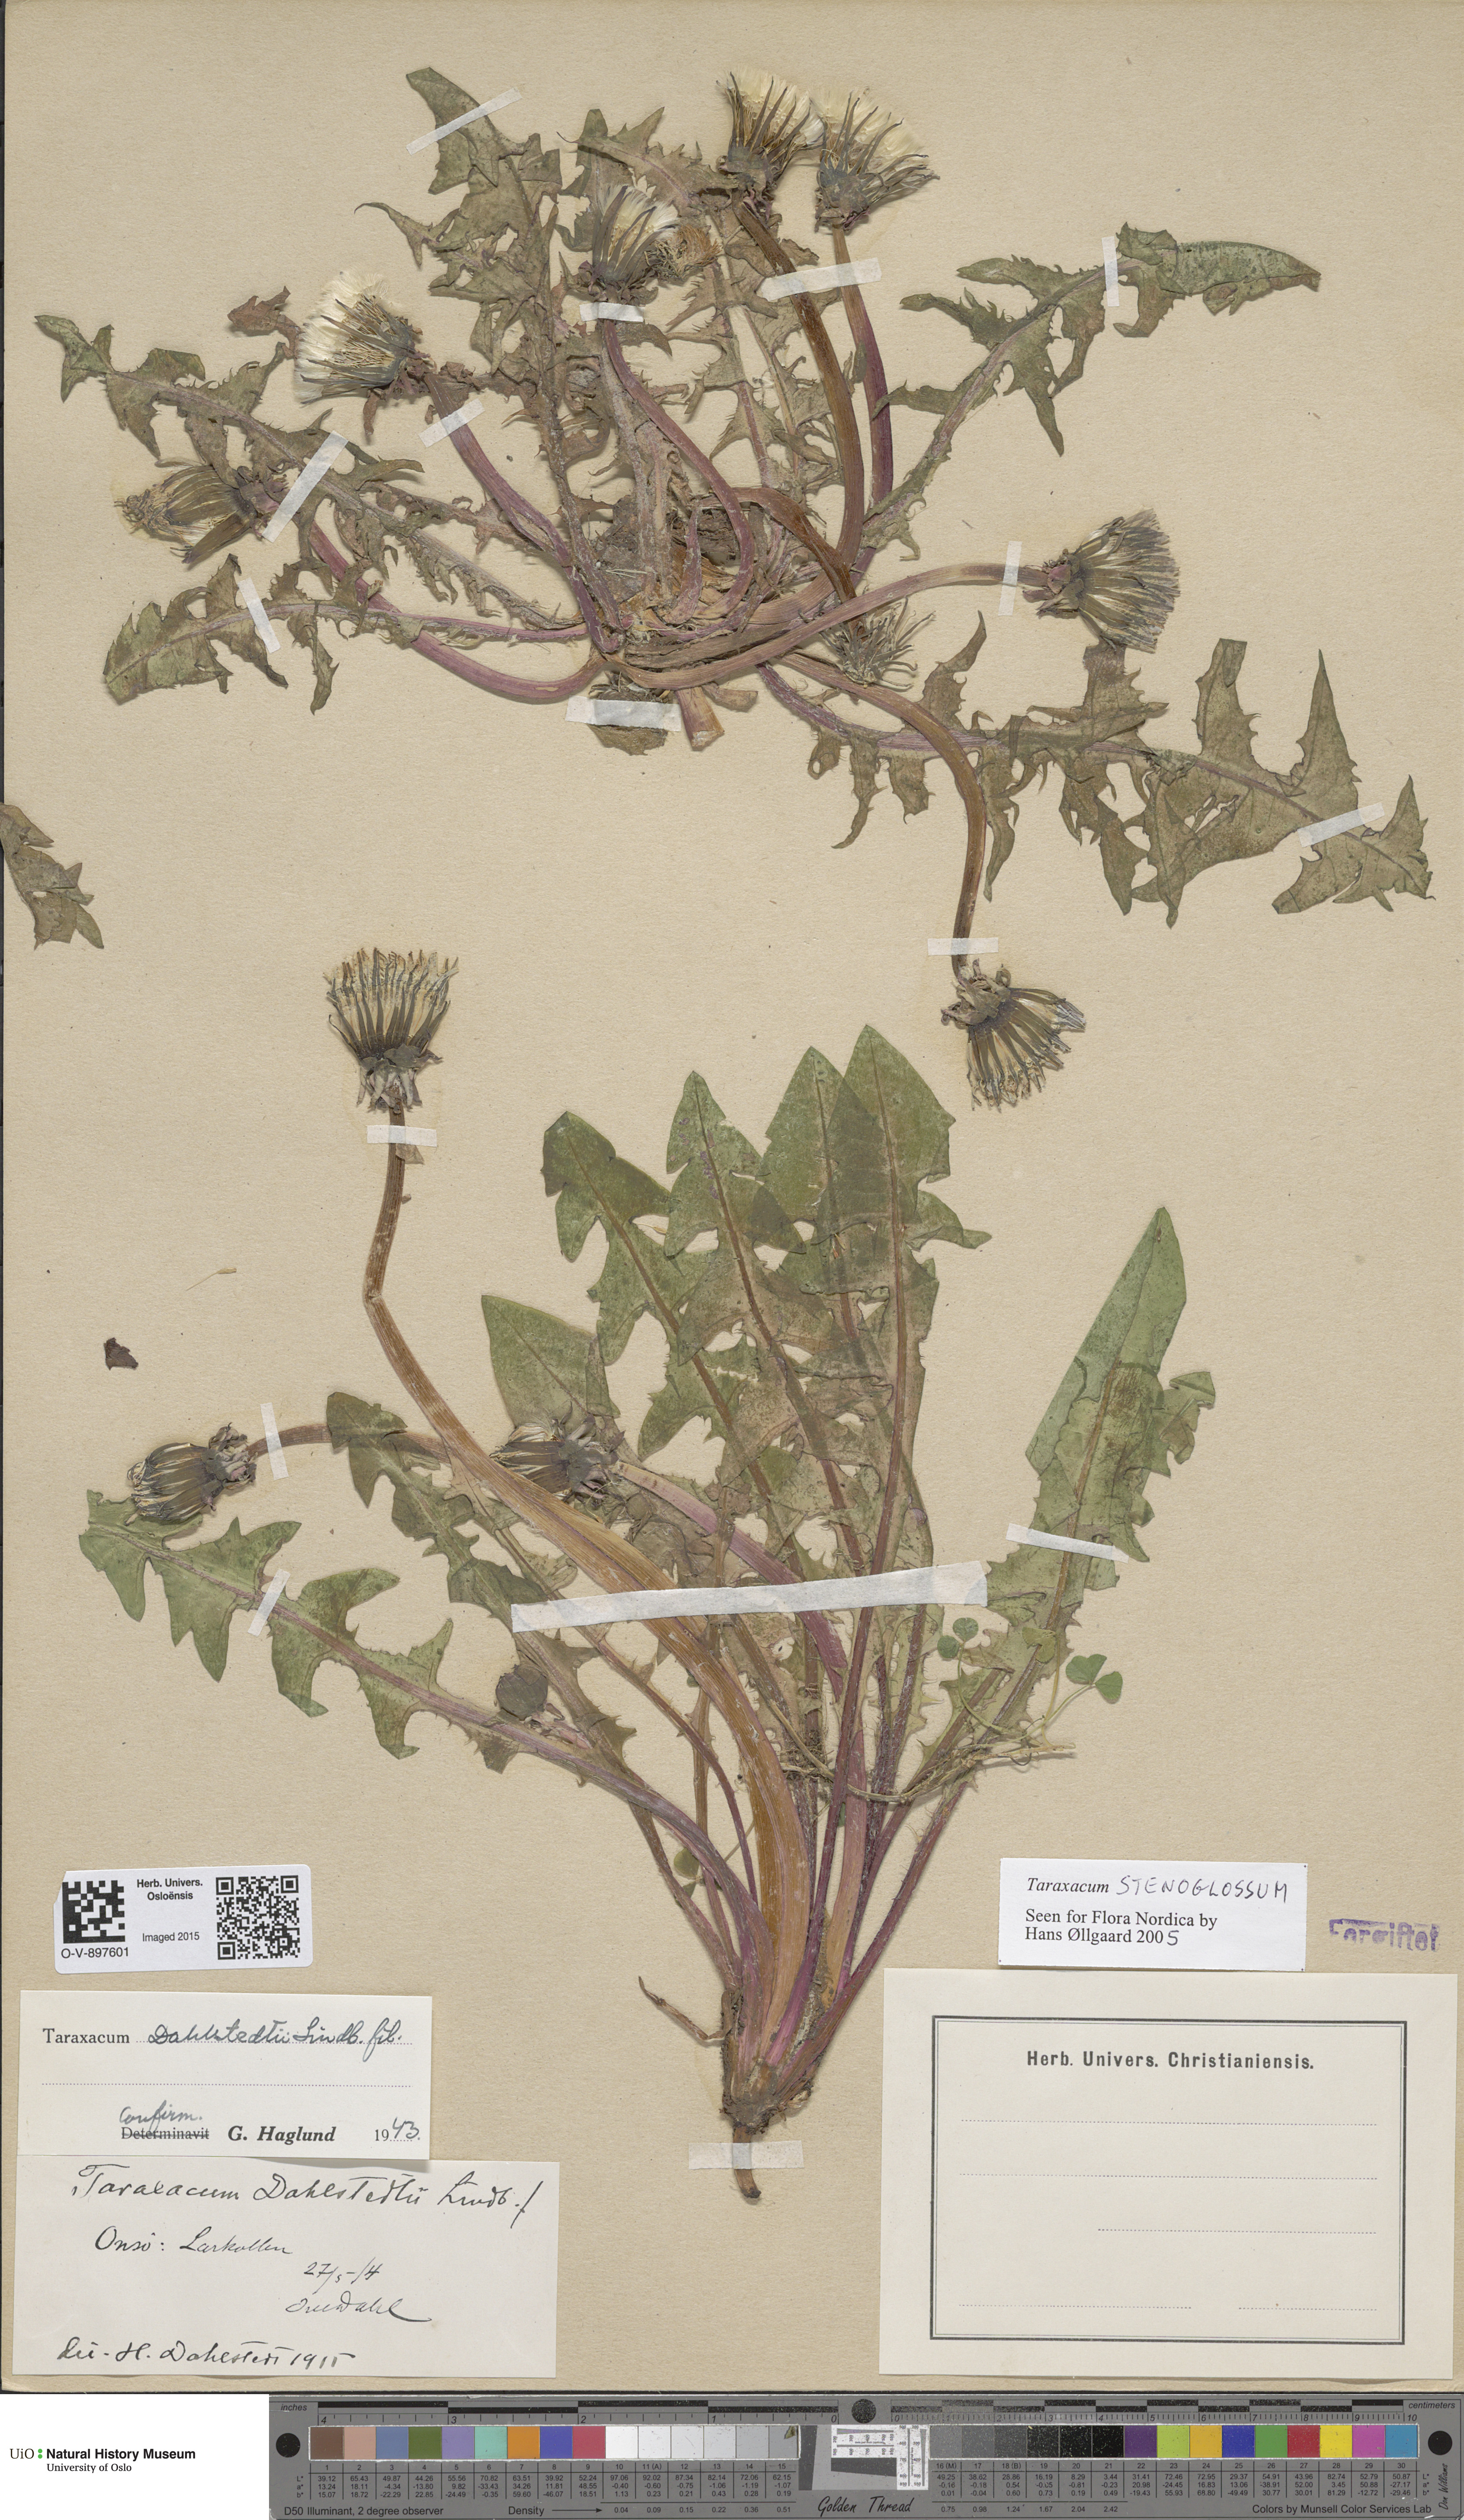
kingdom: Plantae
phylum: Tracheophyta
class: Magnoliopsida
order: Asterales
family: Asteraceae
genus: Taraxacum
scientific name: Taraxacum stenoglossum
